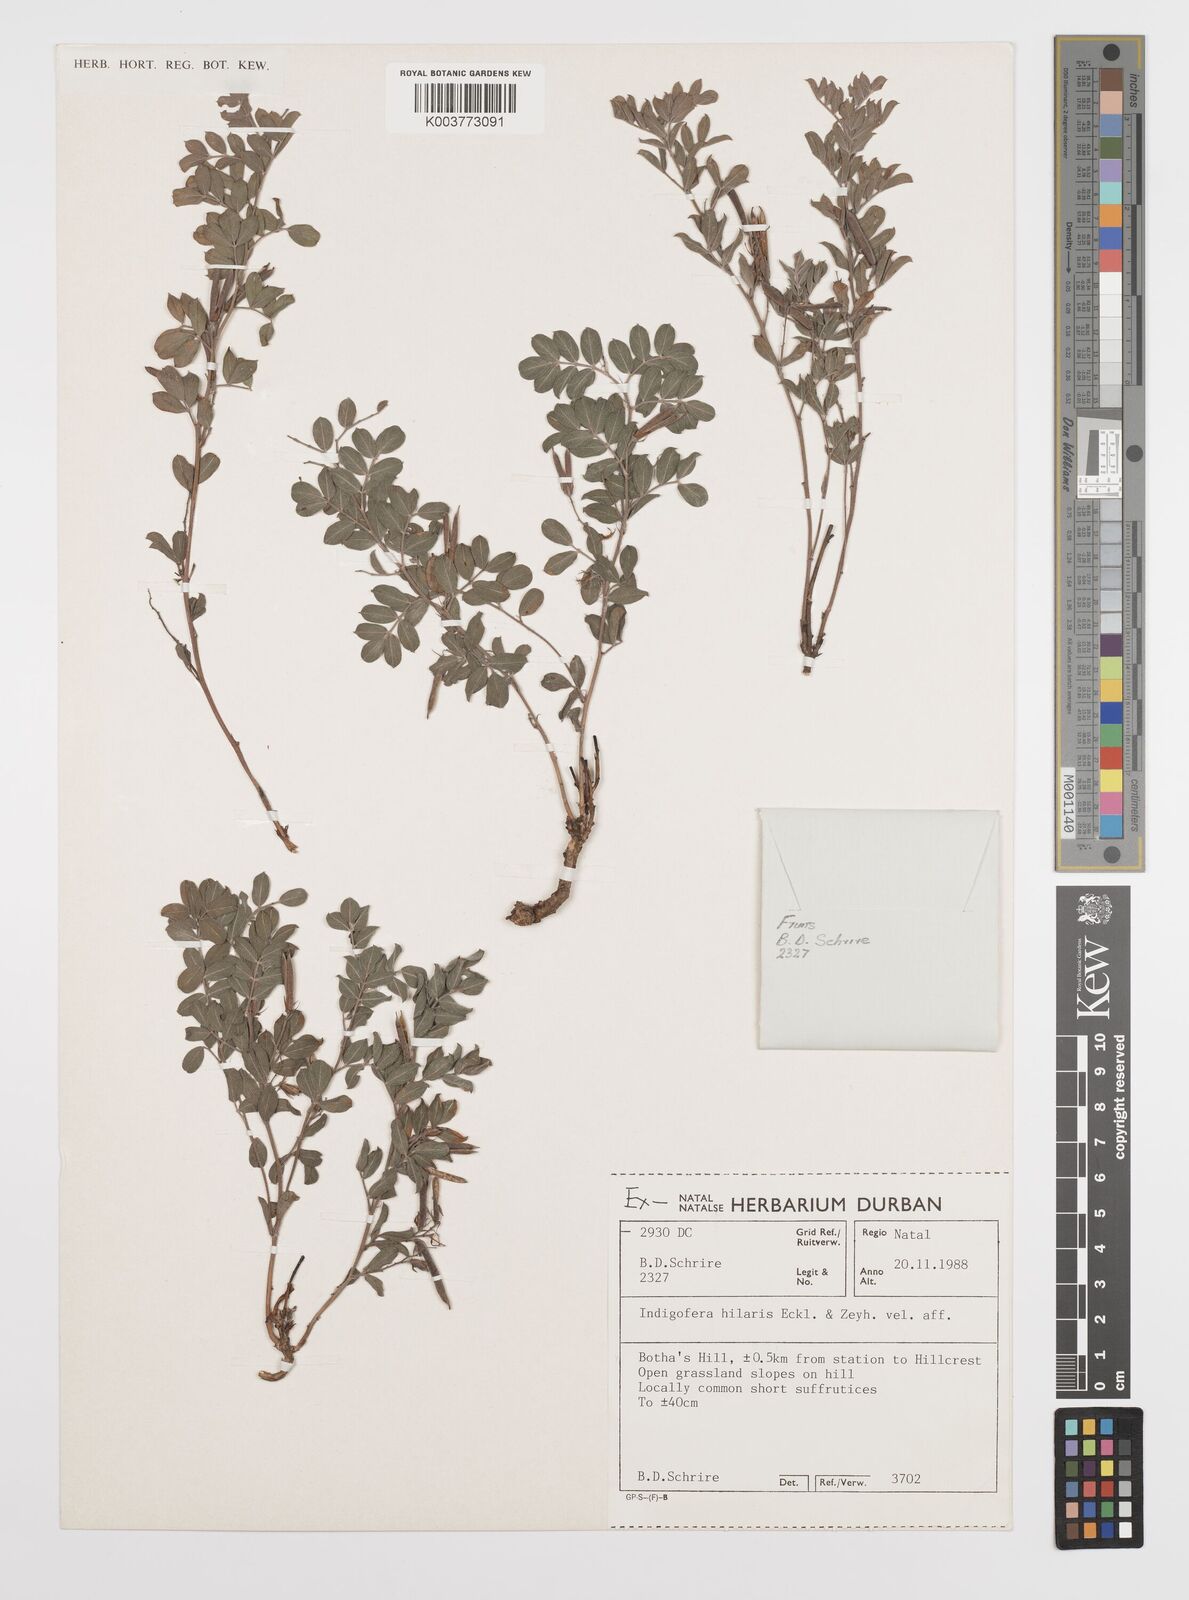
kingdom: Plantae
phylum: Tracheophyta
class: Magnoliopsida
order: Fabales
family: Fabaceae
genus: Indigofera
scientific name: Indigofera
